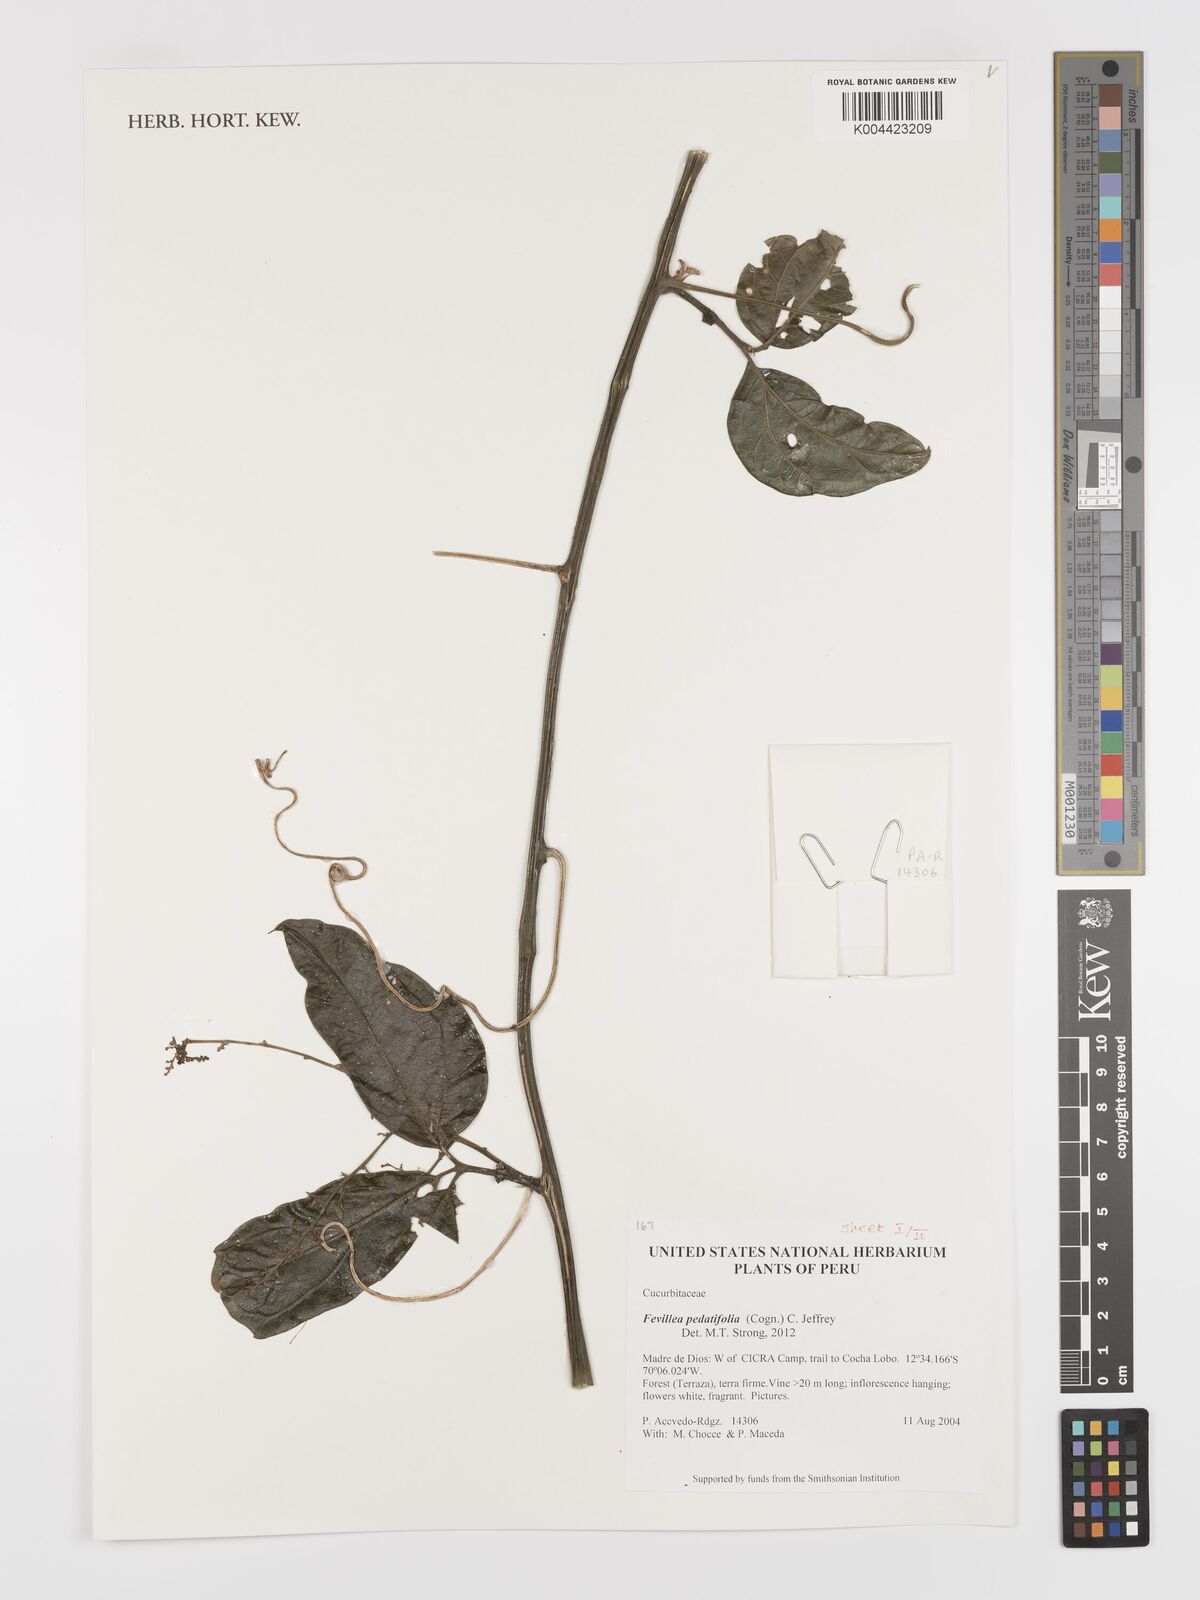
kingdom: Plantae
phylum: Tracheophyta
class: Magnoliopsida
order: Cucurbitales
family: Cucurbitaceae
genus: Fevillea
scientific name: Fevillea pedatifolia
